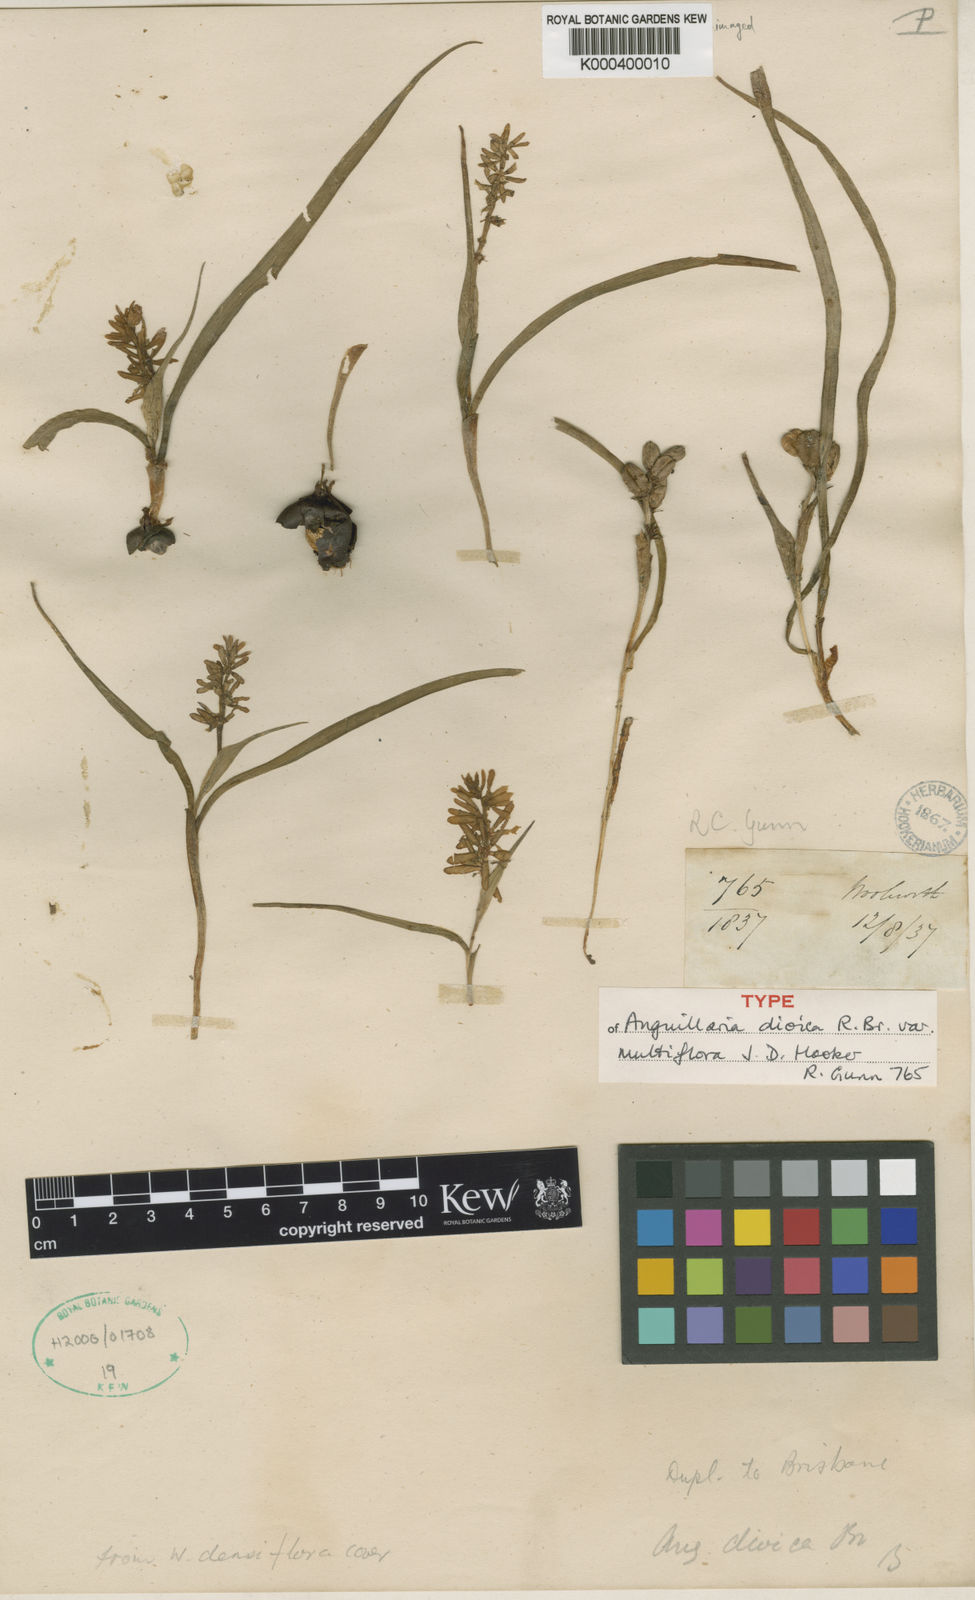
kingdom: Plantae
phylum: Tracheophyta
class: Liliopsida
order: Liliales
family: Colchicaceae
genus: Wurmbea
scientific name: Wurmbea latifolia
